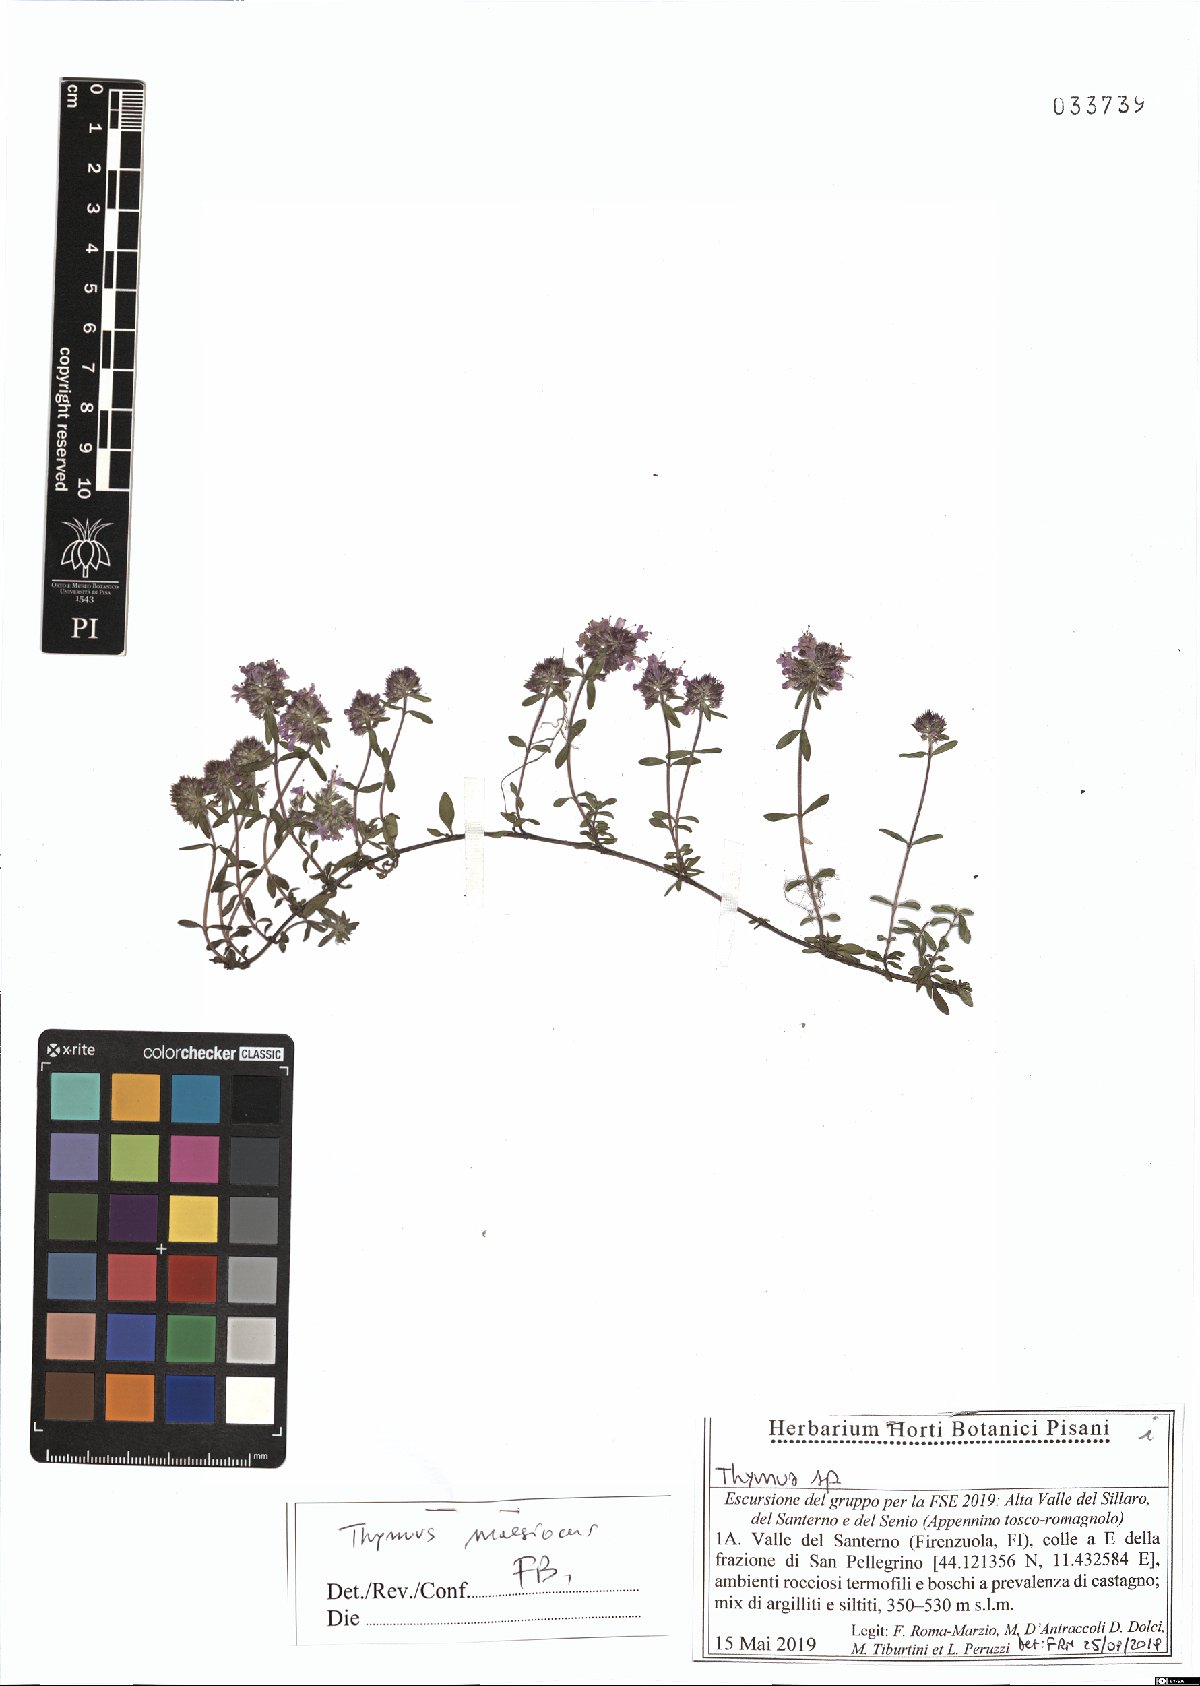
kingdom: Plantae
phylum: Tracheophyta
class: Magnoliopsida
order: Lamiales
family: Lamiaceae
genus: Thymus
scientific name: Thymus longicaulis
